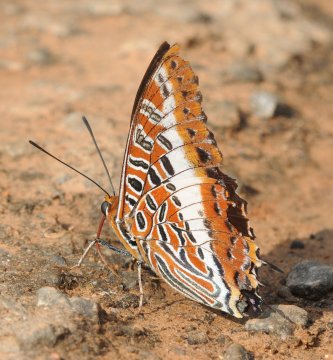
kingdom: Animalia
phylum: Arthropoda
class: Insecta
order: Lepidoptera
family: Nymphalidae
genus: Charaxes
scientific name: Charaxes brutus
